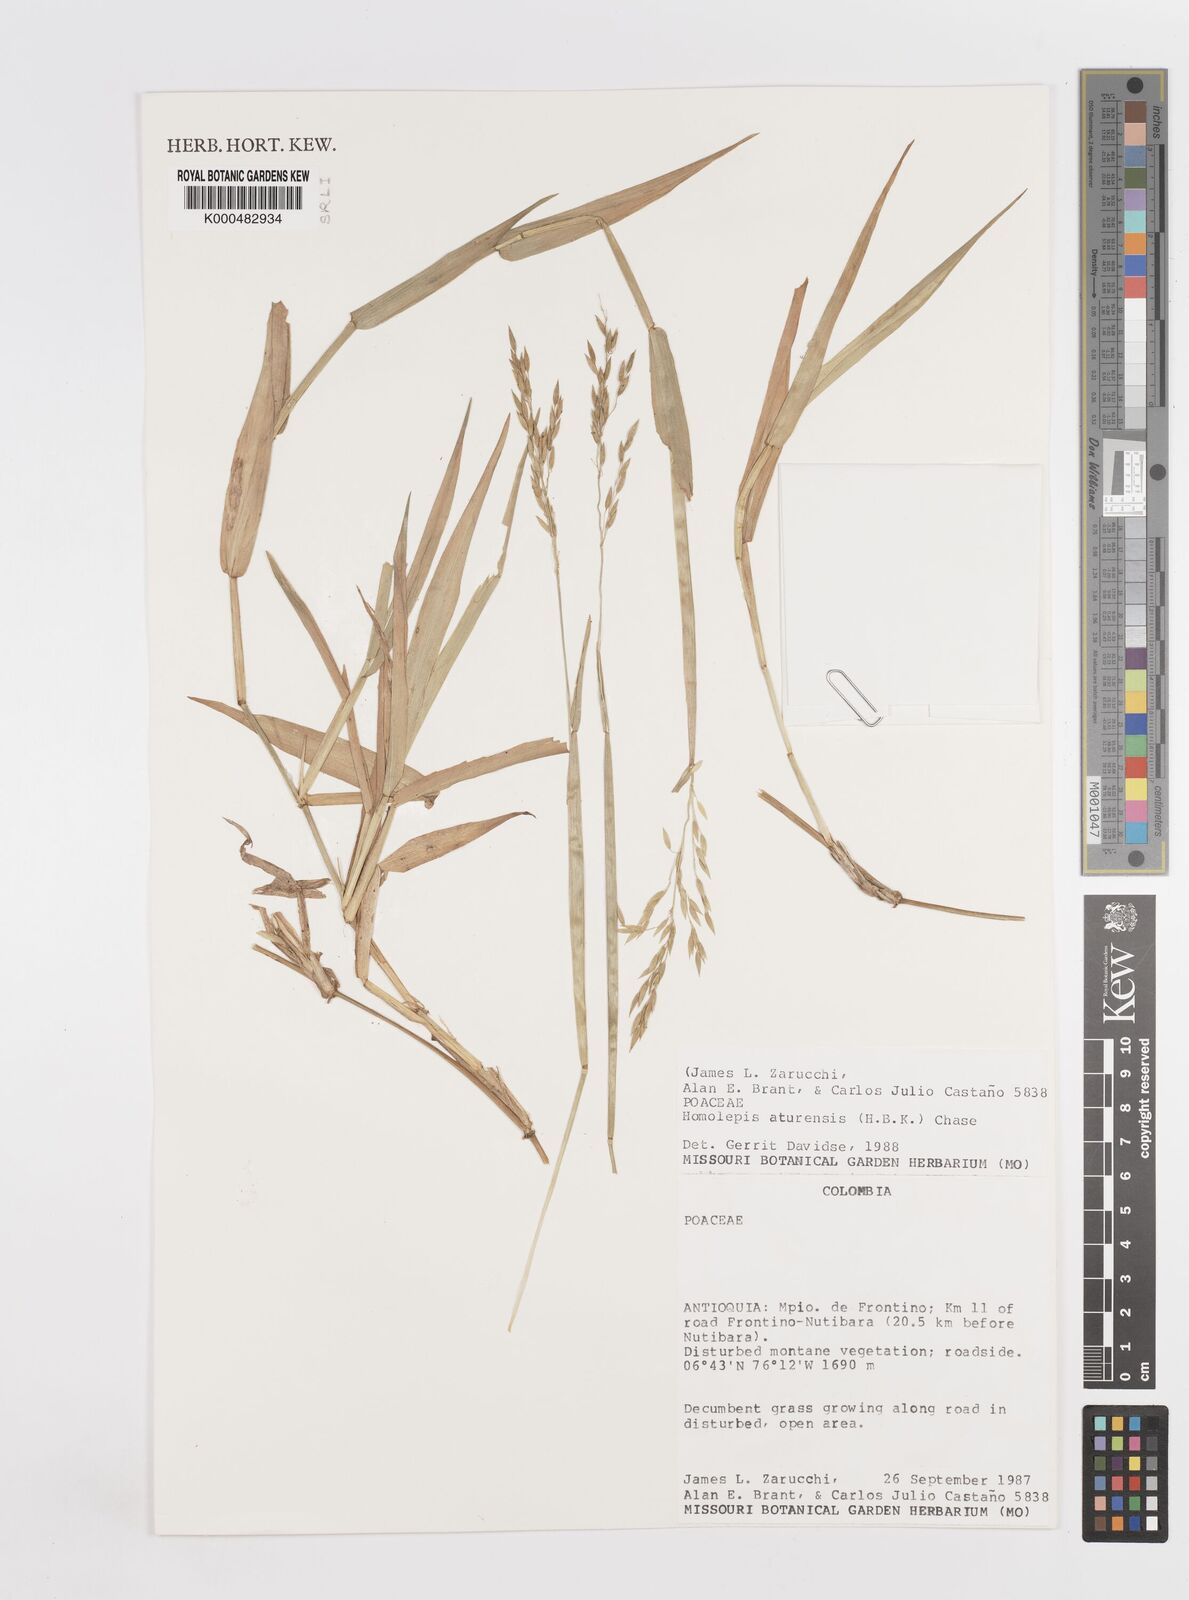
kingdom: Plantae
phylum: Tracheophyta
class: Liliopsida
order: Poales
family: Poaceae
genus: Homolepis
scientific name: Homolepis aturensis
